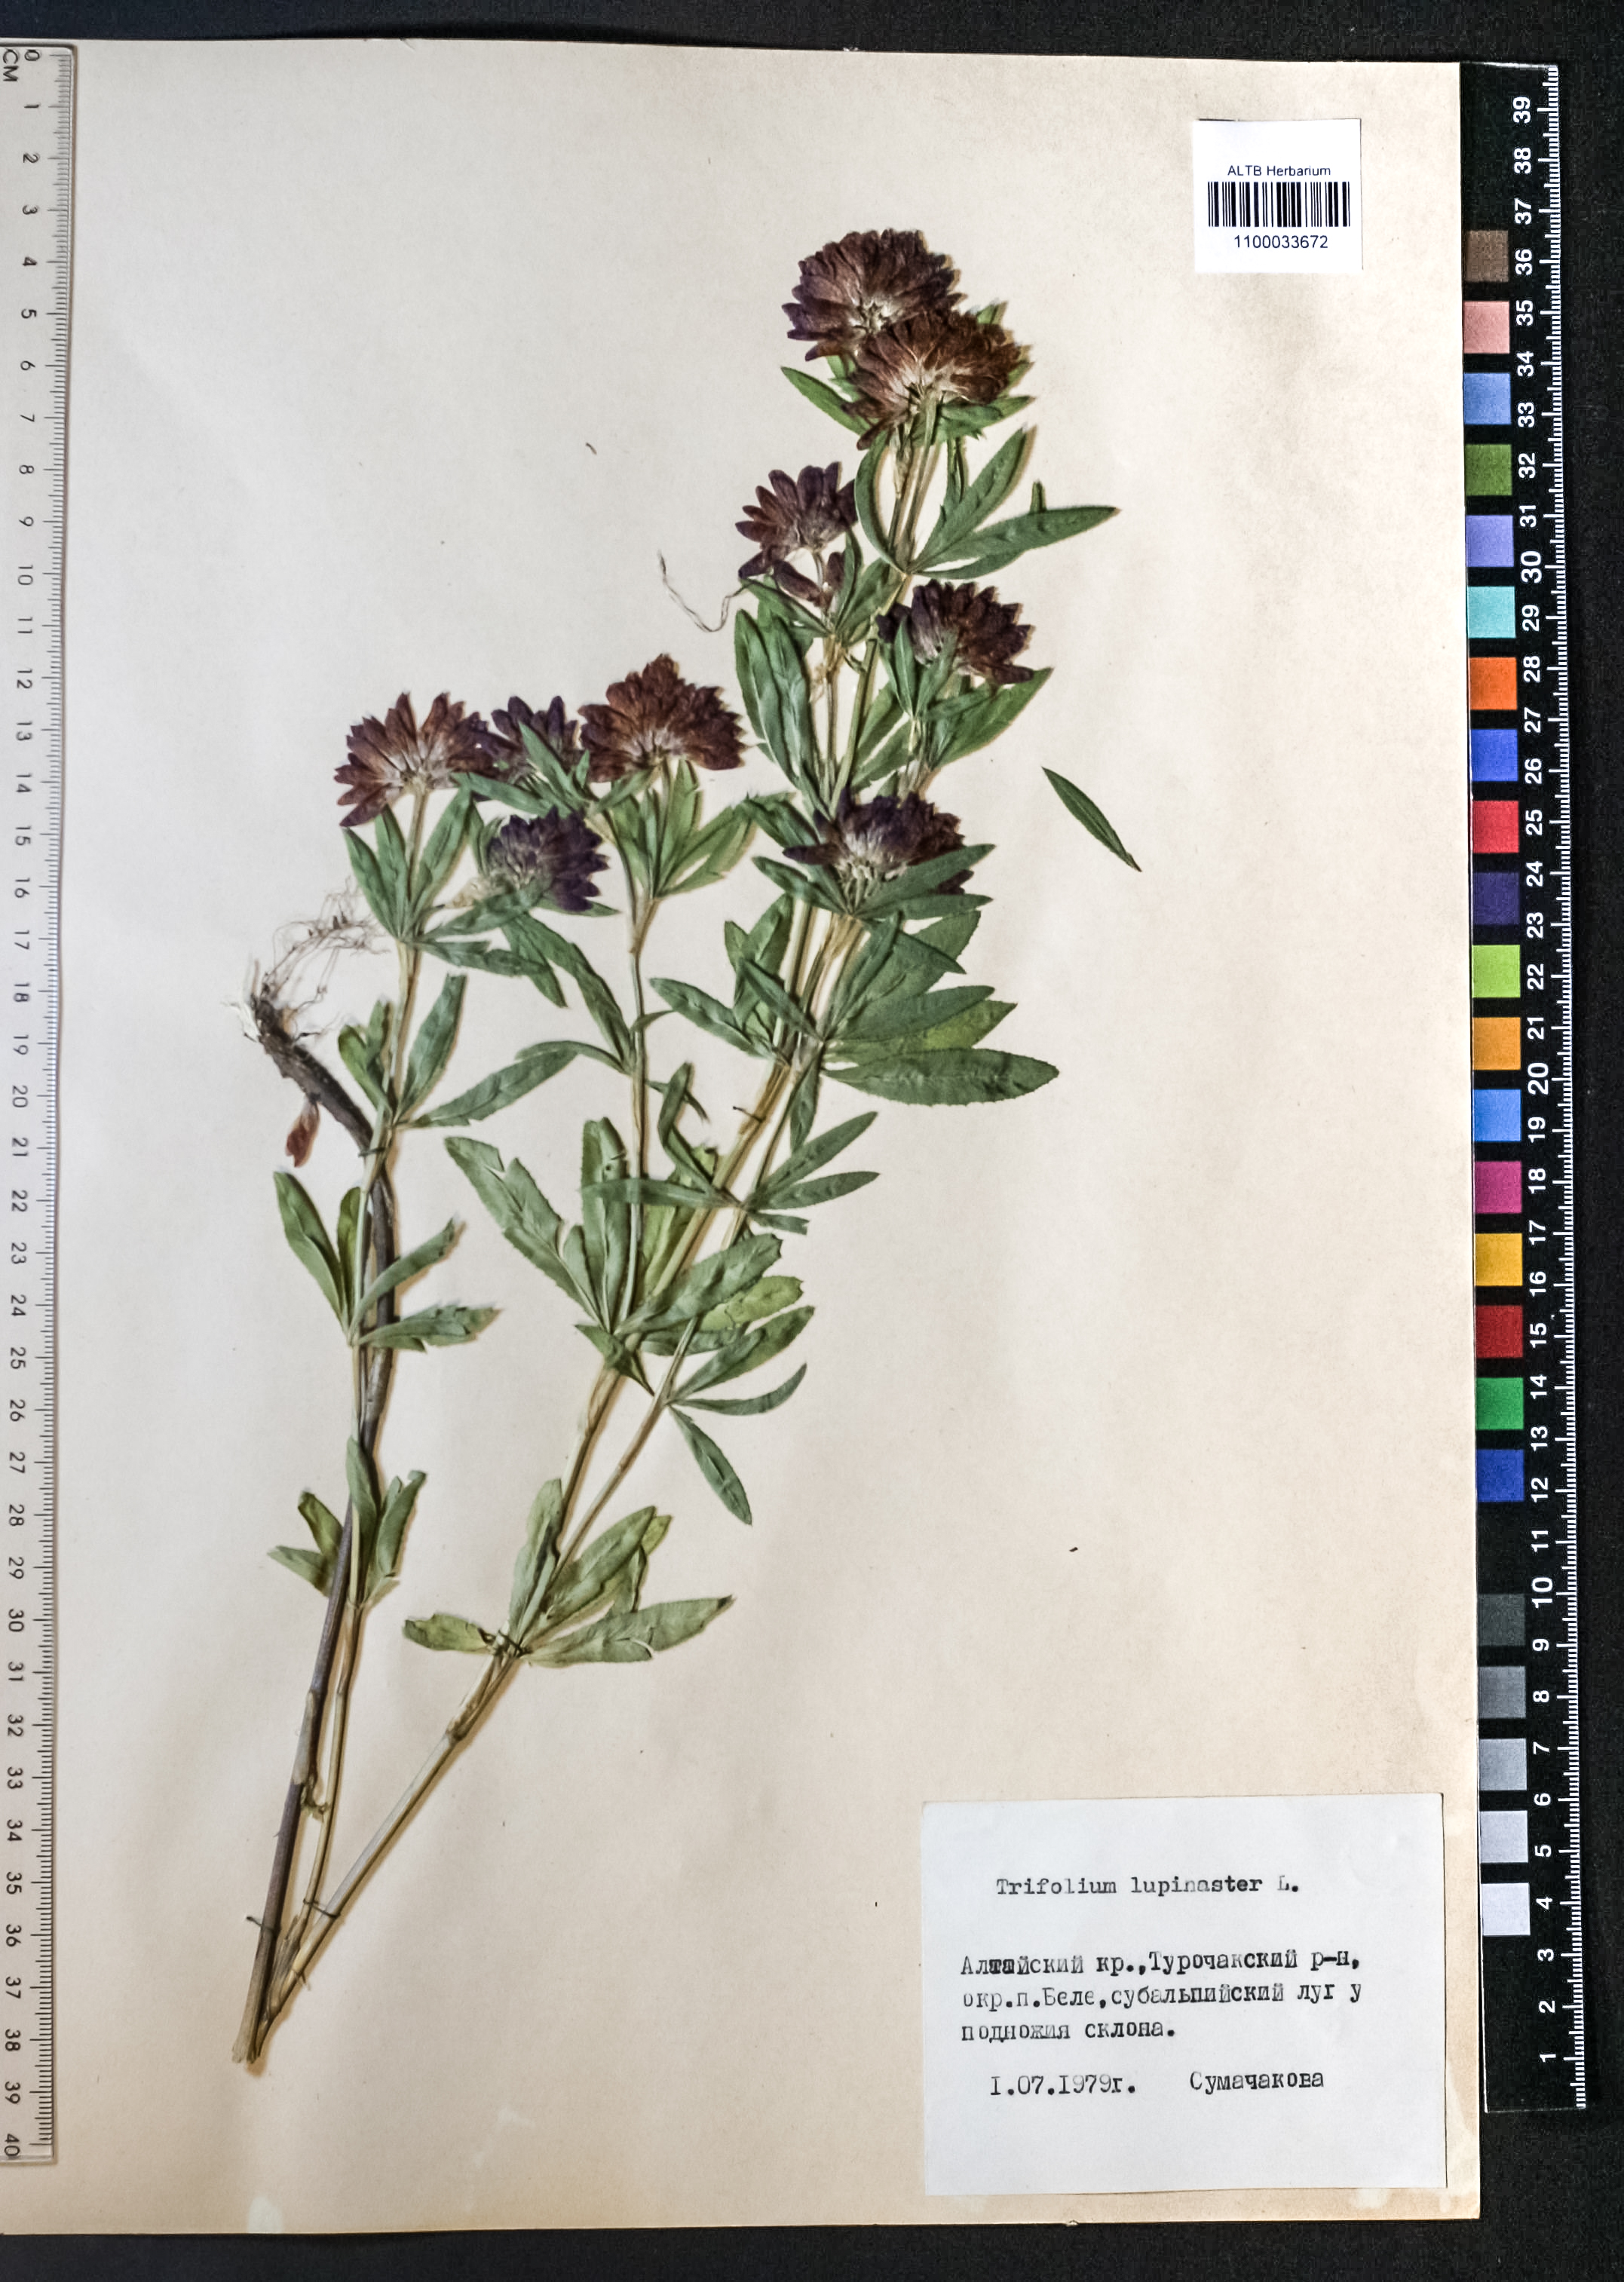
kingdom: Plantae
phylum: Tracheophyta
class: Magnoliopsida
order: Fabales
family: Fabaceae
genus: Trifolium
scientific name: Trifolium lupinaster
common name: Lupine clover
